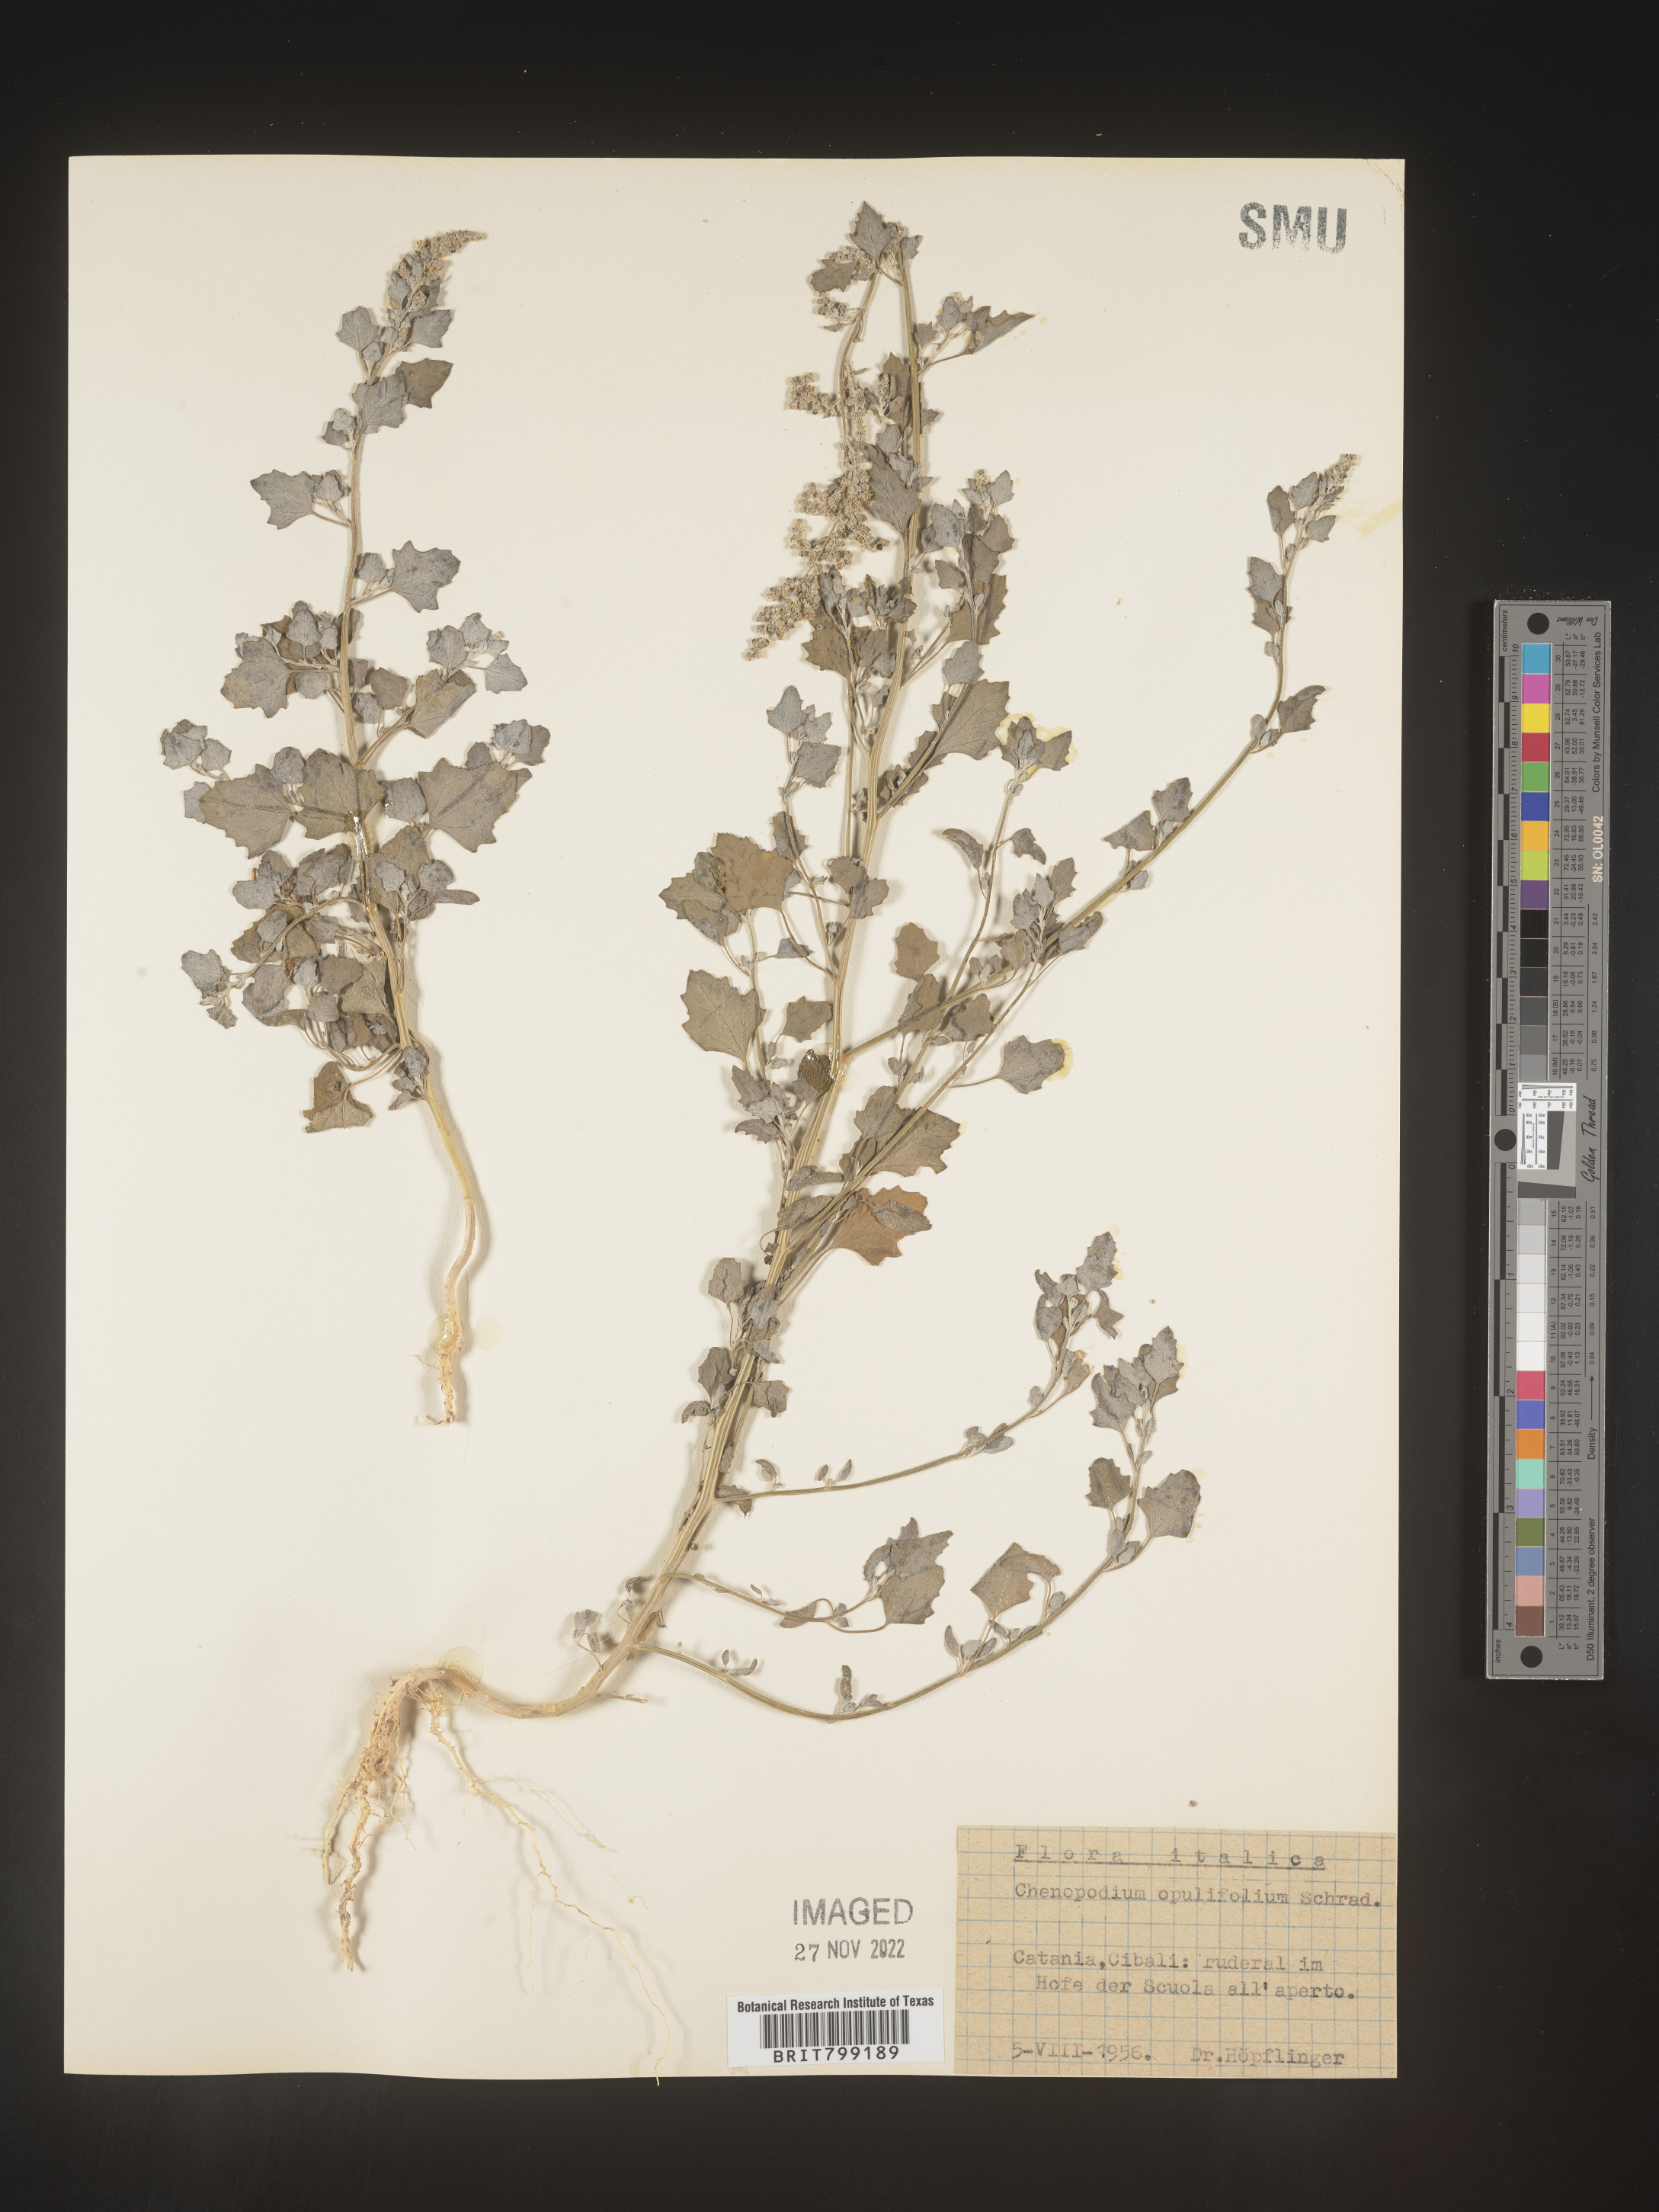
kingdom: Plantae
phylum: Tracheophyta
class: Magnoliopsida
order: Caryophyllales
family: Amaranthaceae
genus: Chenopodium
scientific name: Chenopodium opulifolium
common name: Grey goosefoot
